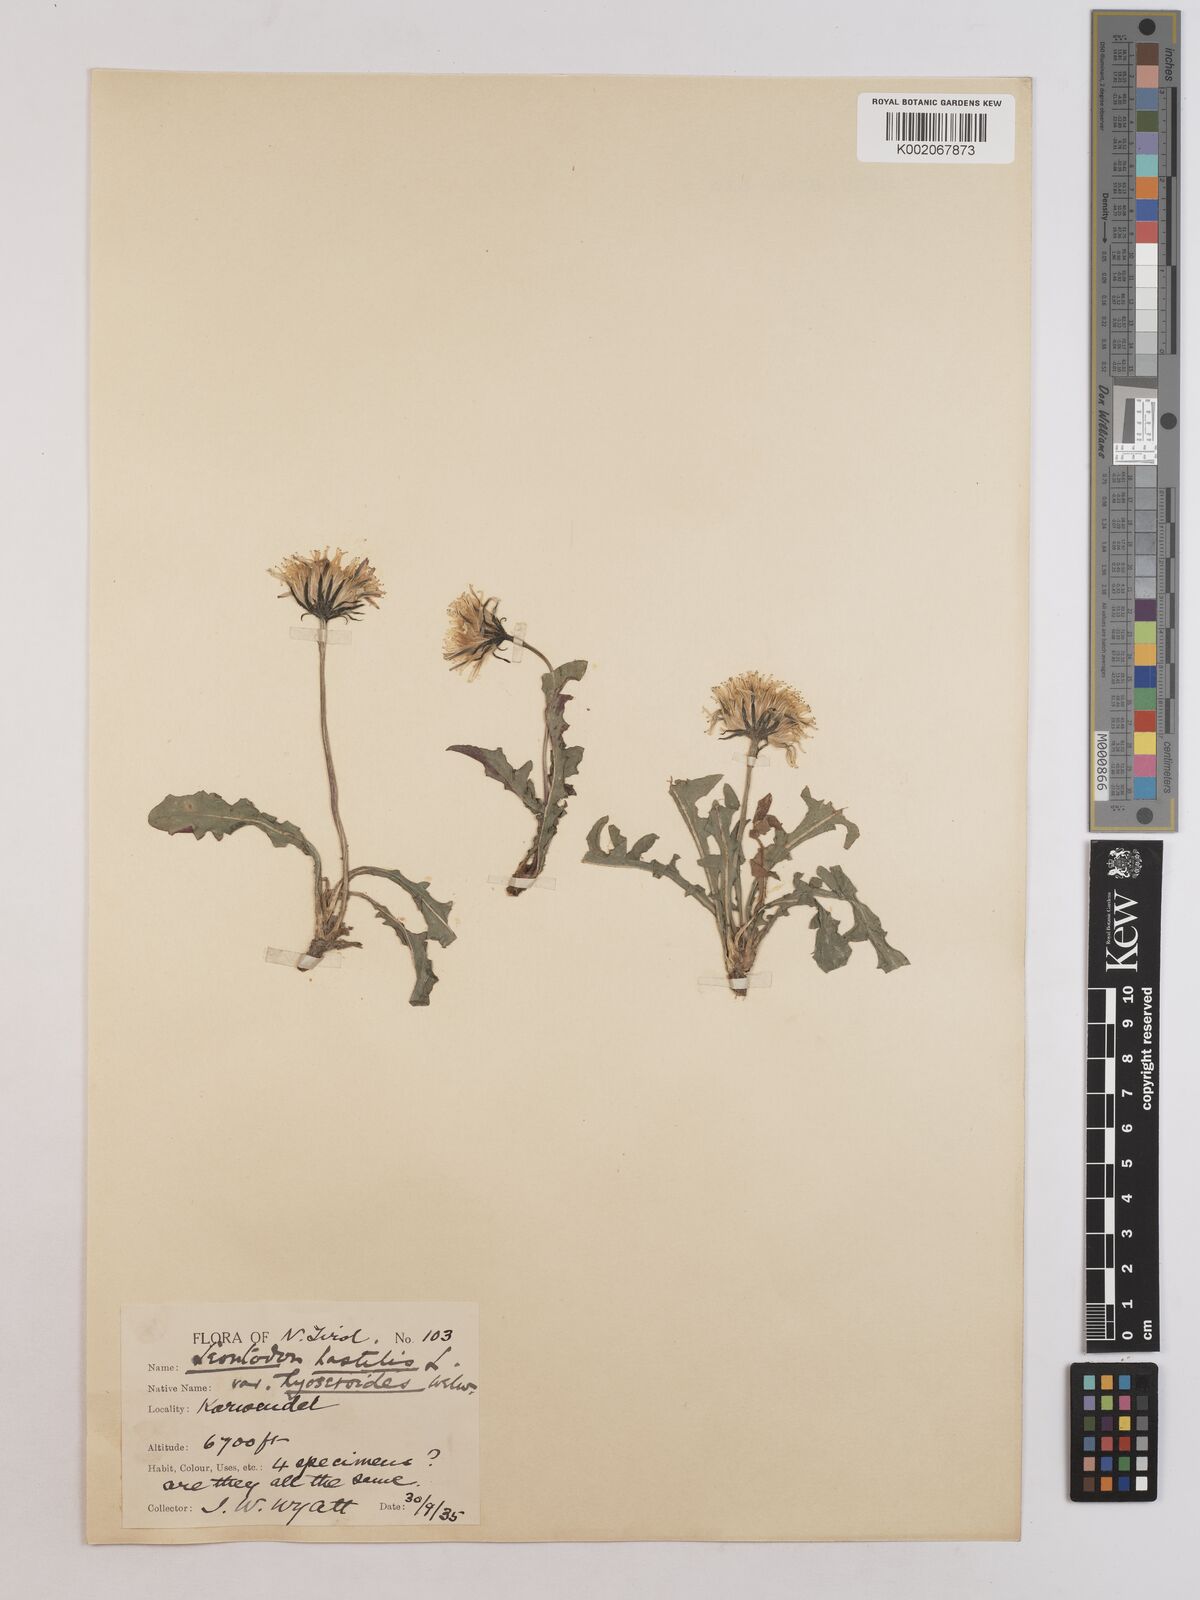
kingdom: Plantae
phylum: Tracheophyta
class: Magnoliopsida
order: Asterales
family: Asteraceae
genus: Leontodon
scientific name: Leontodon hispidus
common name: Rough hawkbit
